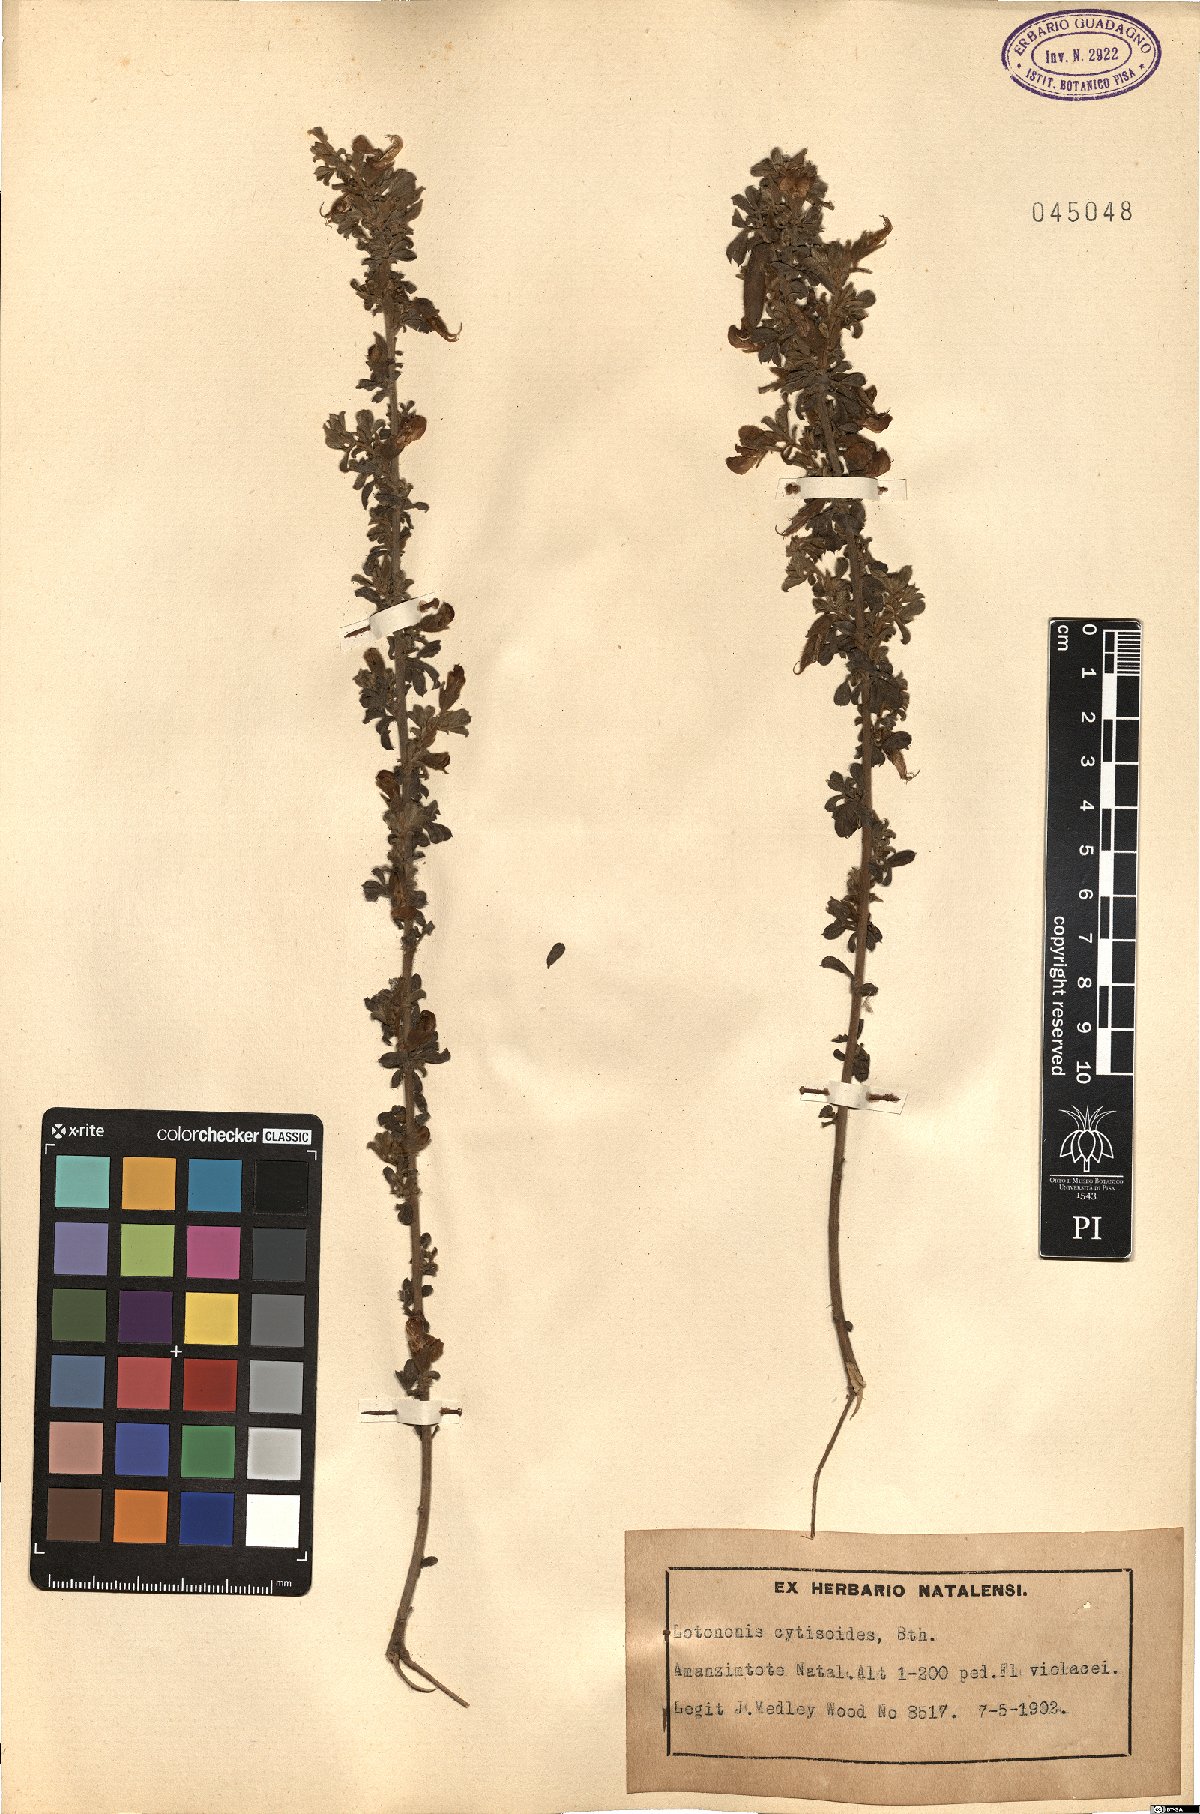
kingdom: Plantae
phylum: Tracheophyta
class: Magnoliopsida
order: Fabales
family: Fabaceae
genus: Lotononis
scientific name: Lotononis stricta
